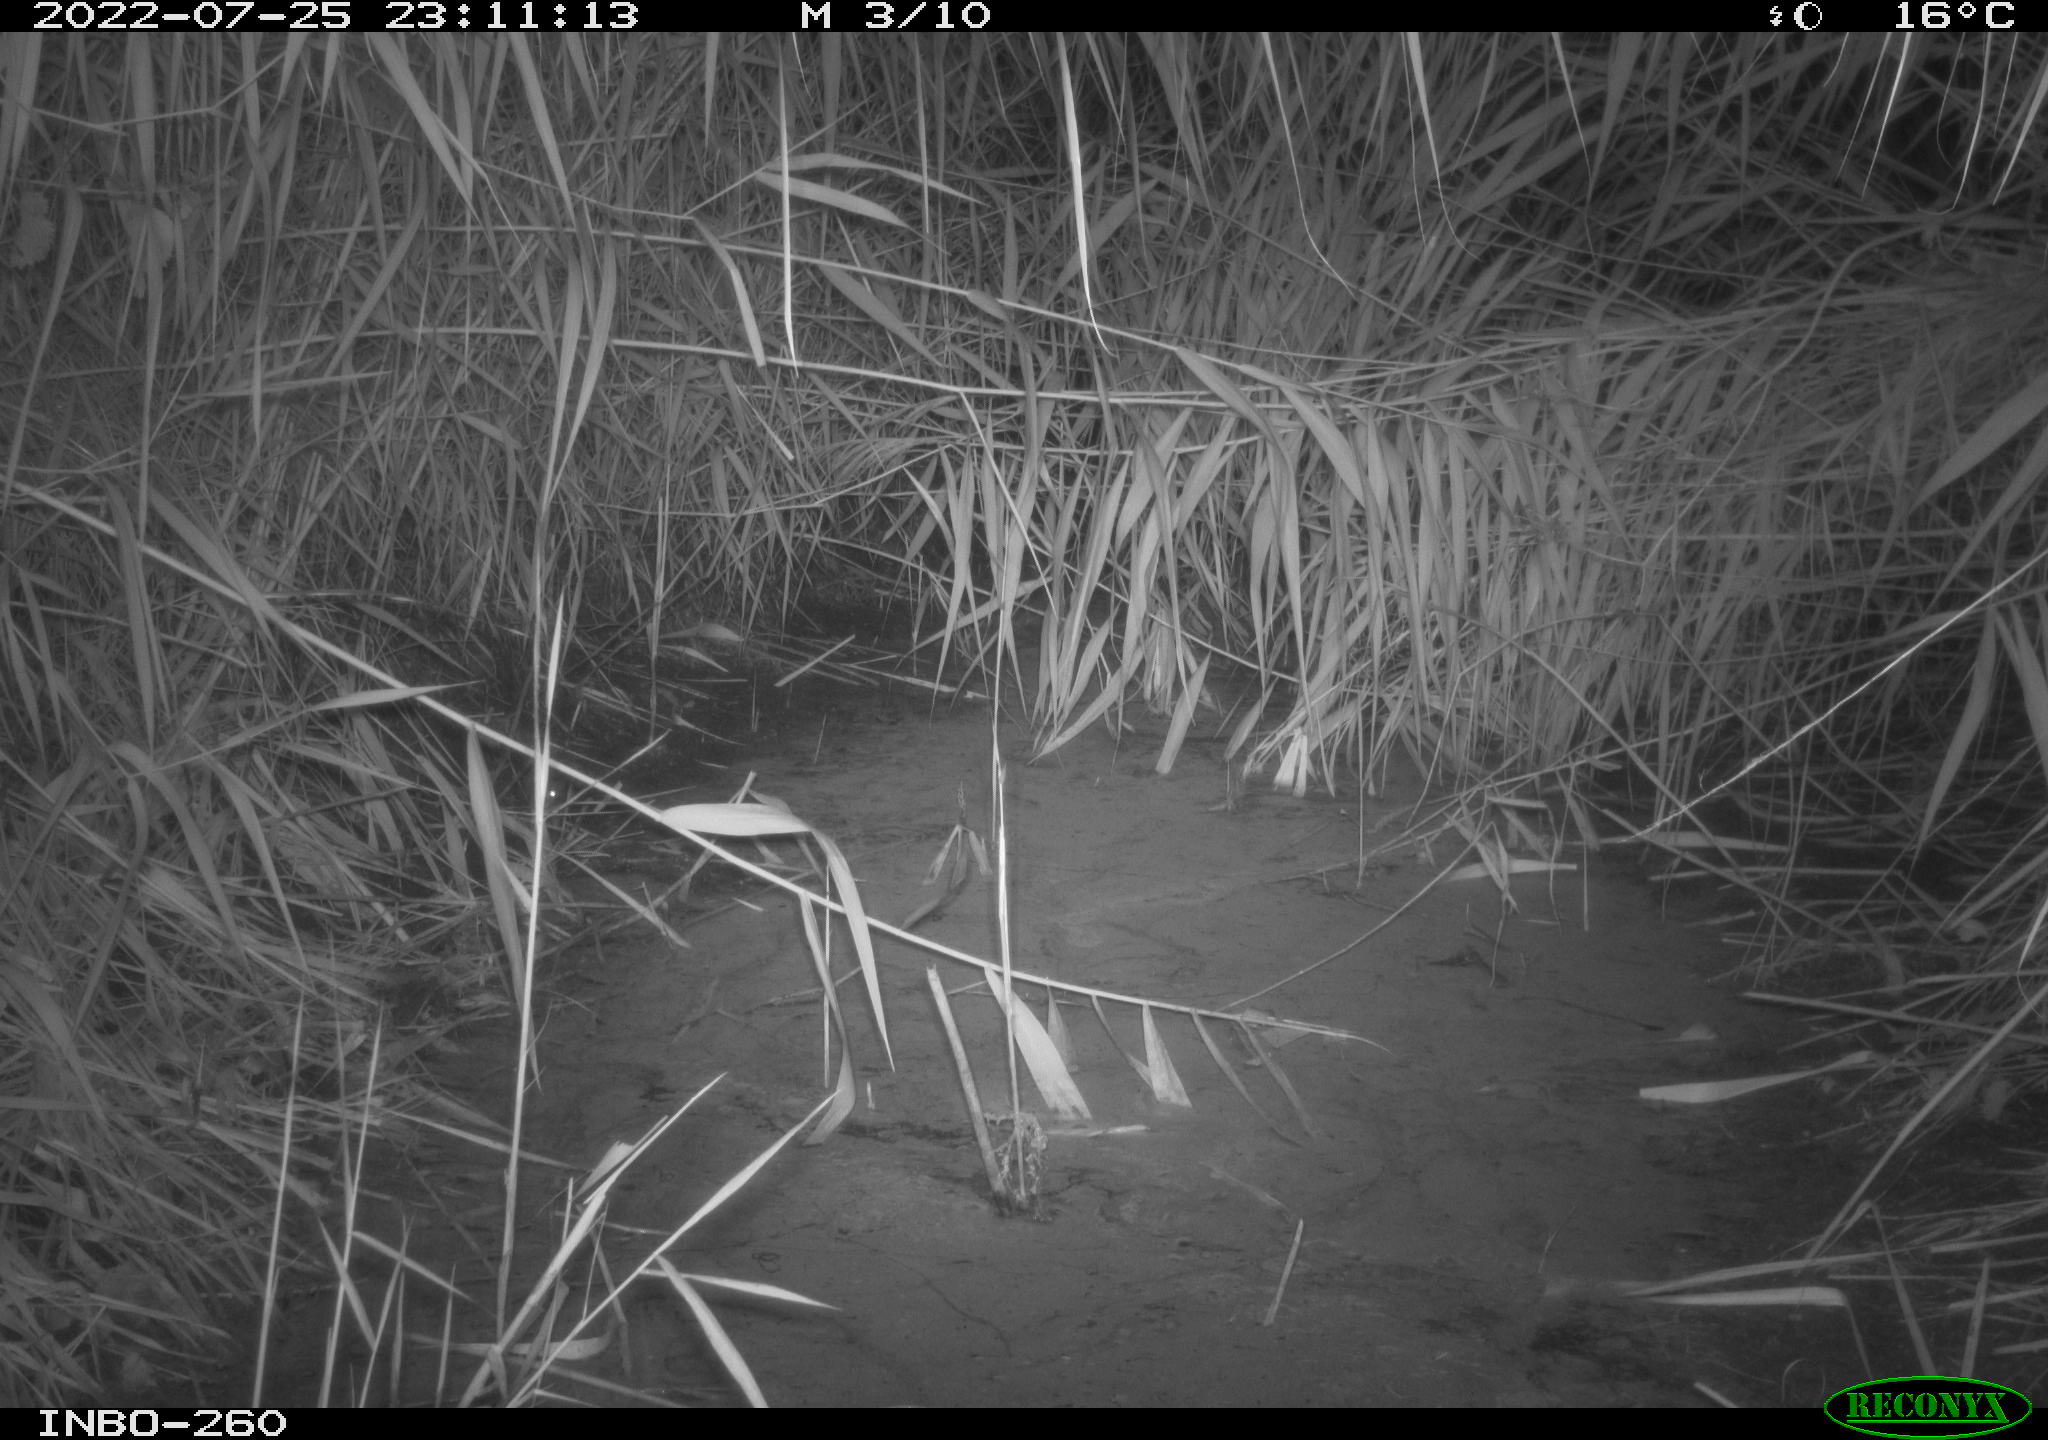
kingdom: Animalia
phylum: Chordata
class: Mammalia
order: Rodentia
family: Muridae
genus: Rattus
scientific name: Rattus norvegicus
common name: Brown rat
